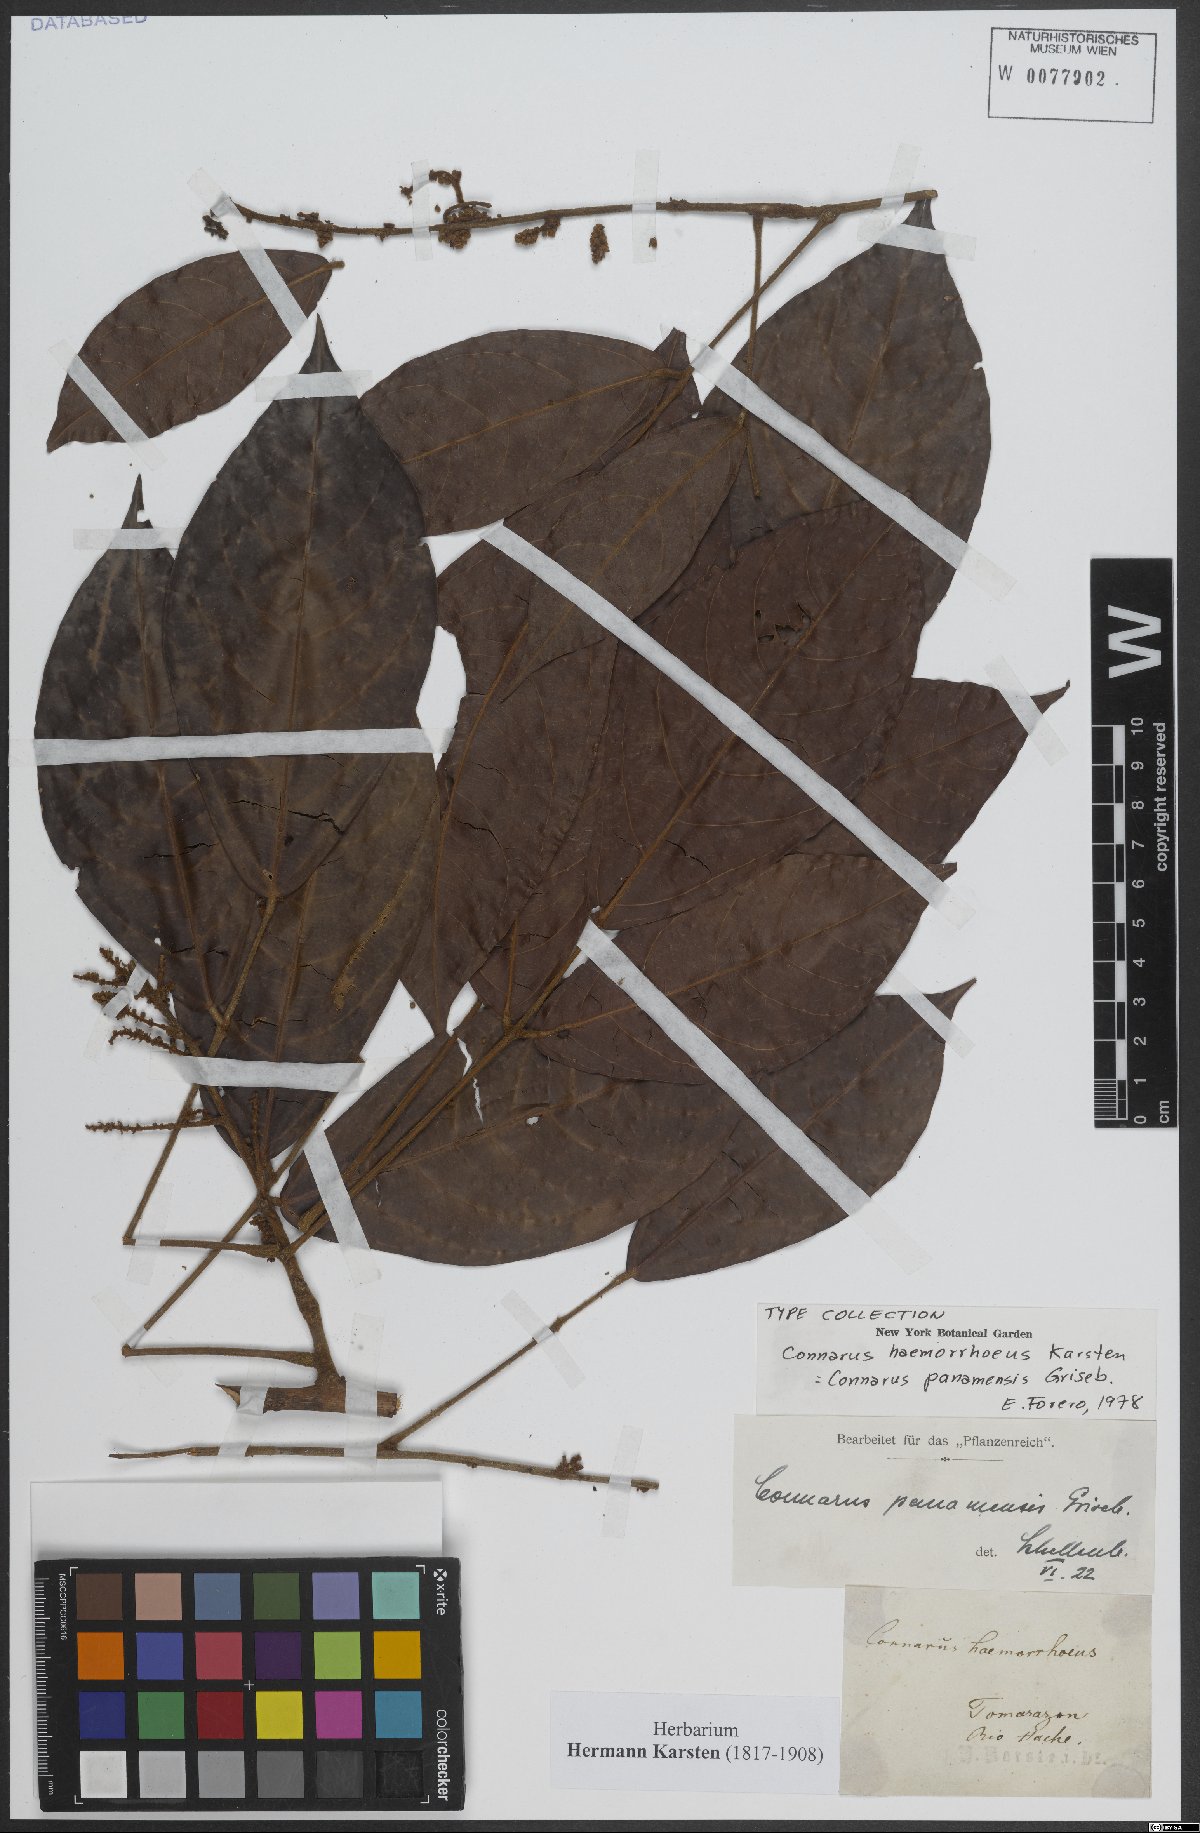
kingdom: Plantae
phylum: Tracheophyta
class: Magnoliopsida
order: Oxalidales
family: Connaraceae
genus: Connarus
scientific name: Connarus panamensis
